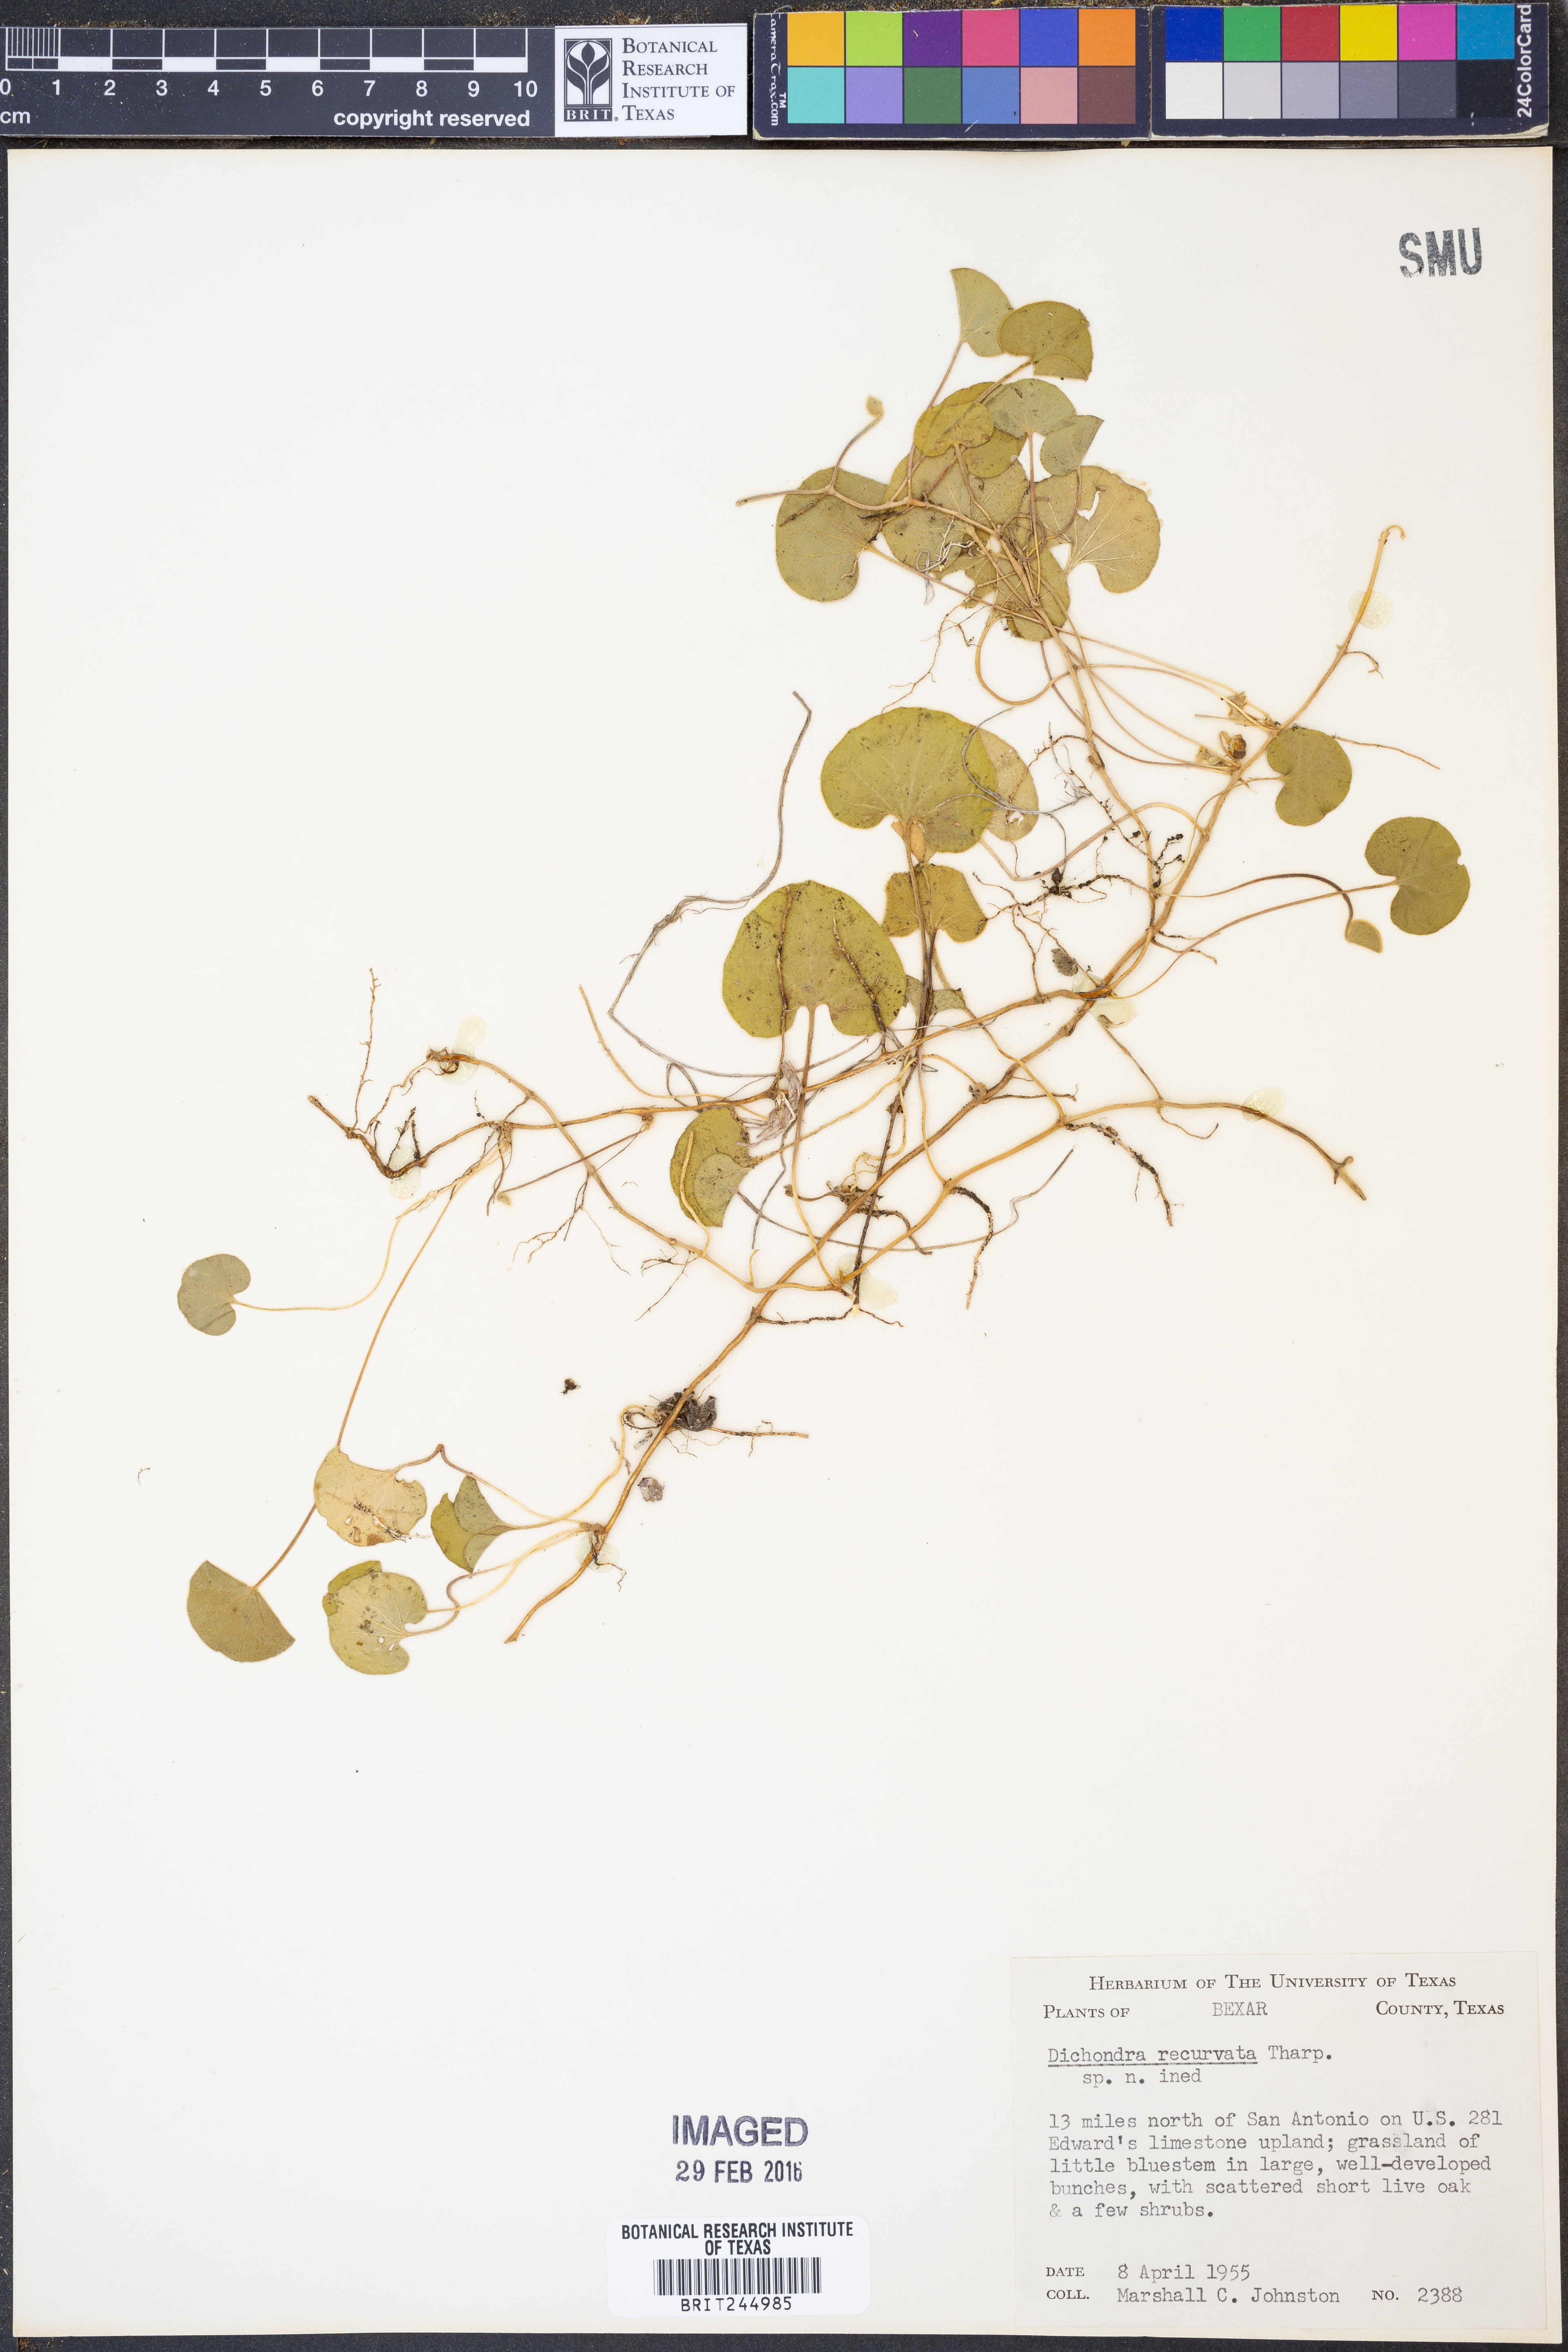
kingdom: Plantae
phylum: Tracheophyta
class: Magnoliopsida
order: Solanales
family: Convolvulaceae
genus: Dichondra
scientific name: Dichondra recurvata
